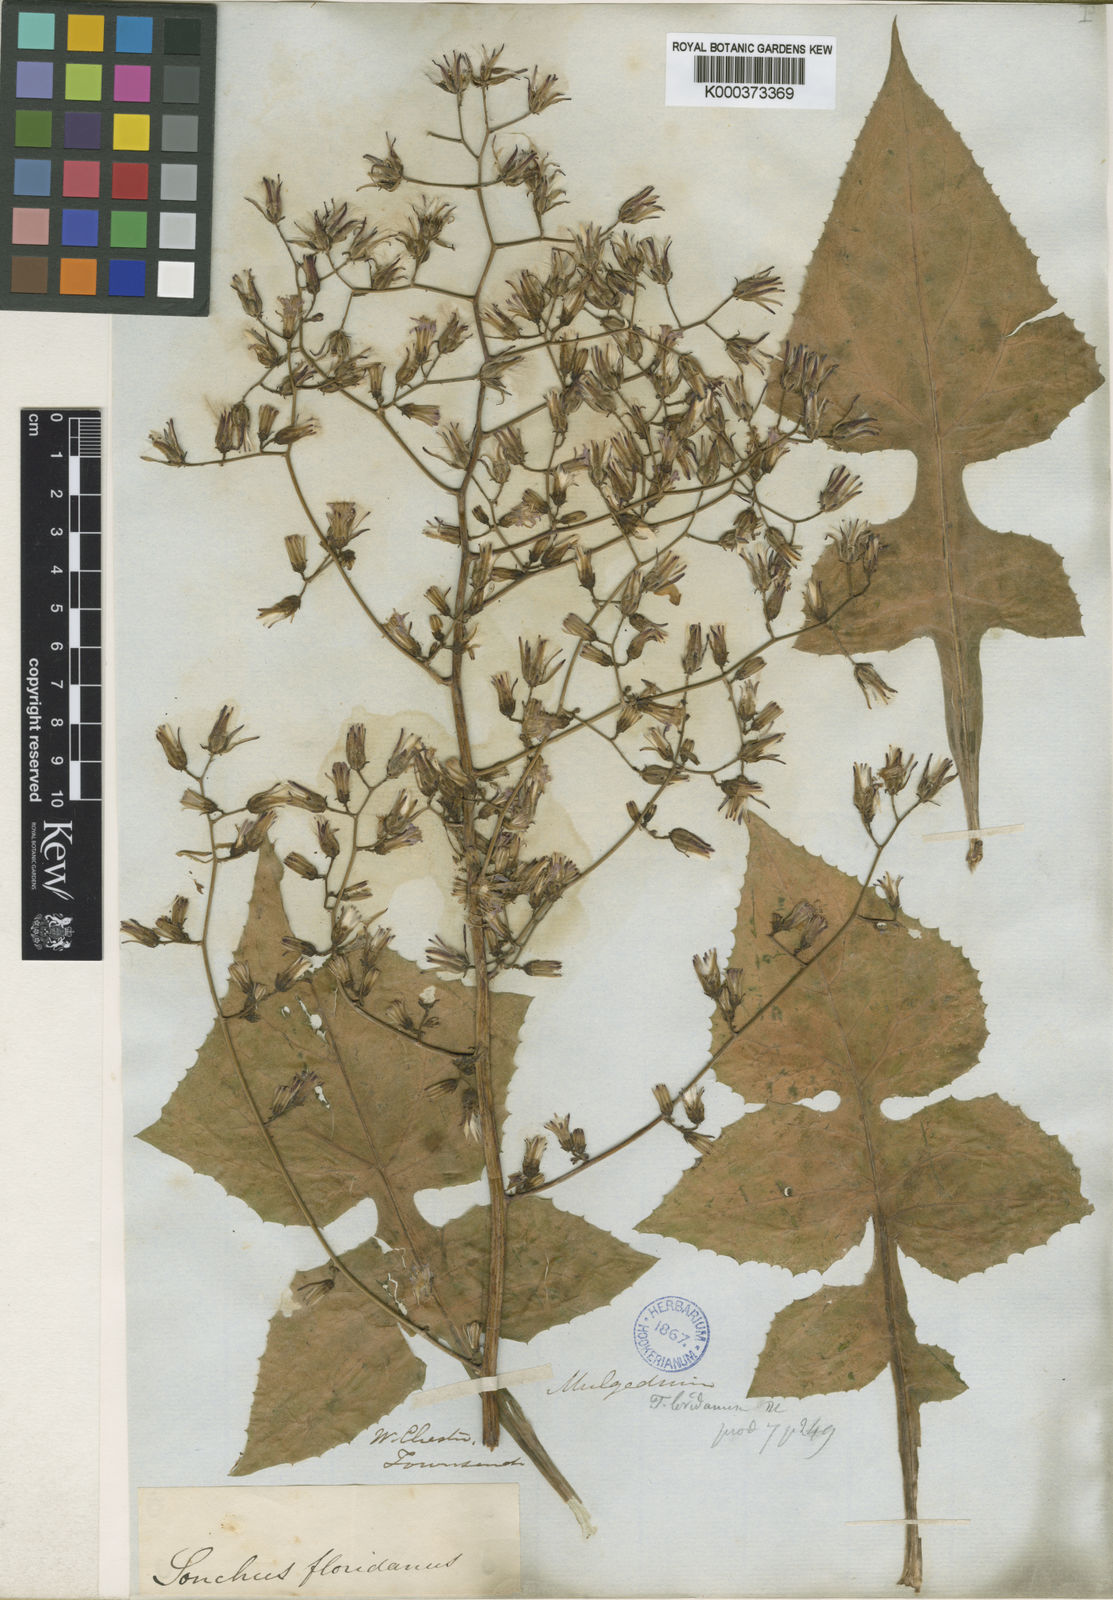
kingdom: Plantae
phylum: Tracheophyta
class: Magnoliopsida
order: Asterales
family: Asteraceae
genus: Lactuca
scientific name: Lactuca floridana
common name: Woodland lettuce
